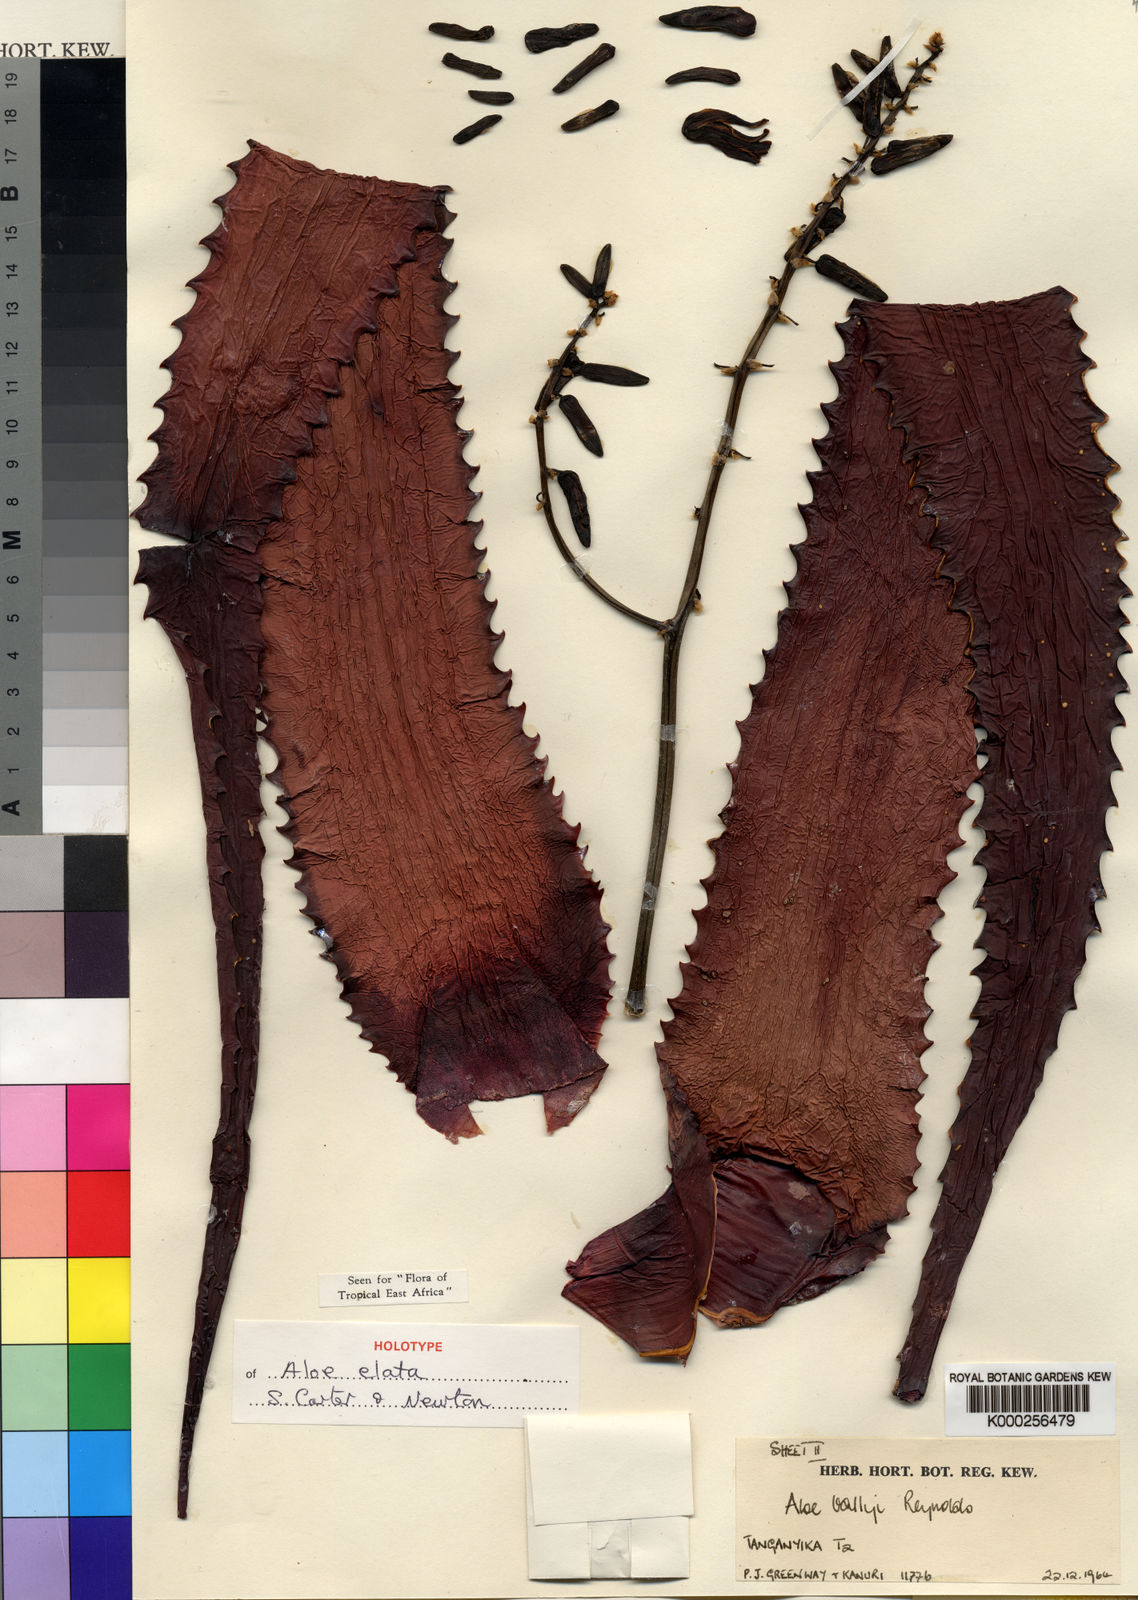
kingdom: Plantae
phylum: Tracheophyta
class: Liliopsida
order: Asparagales
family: Asphodelaceae
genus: Aloe
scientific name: Aloe elata
